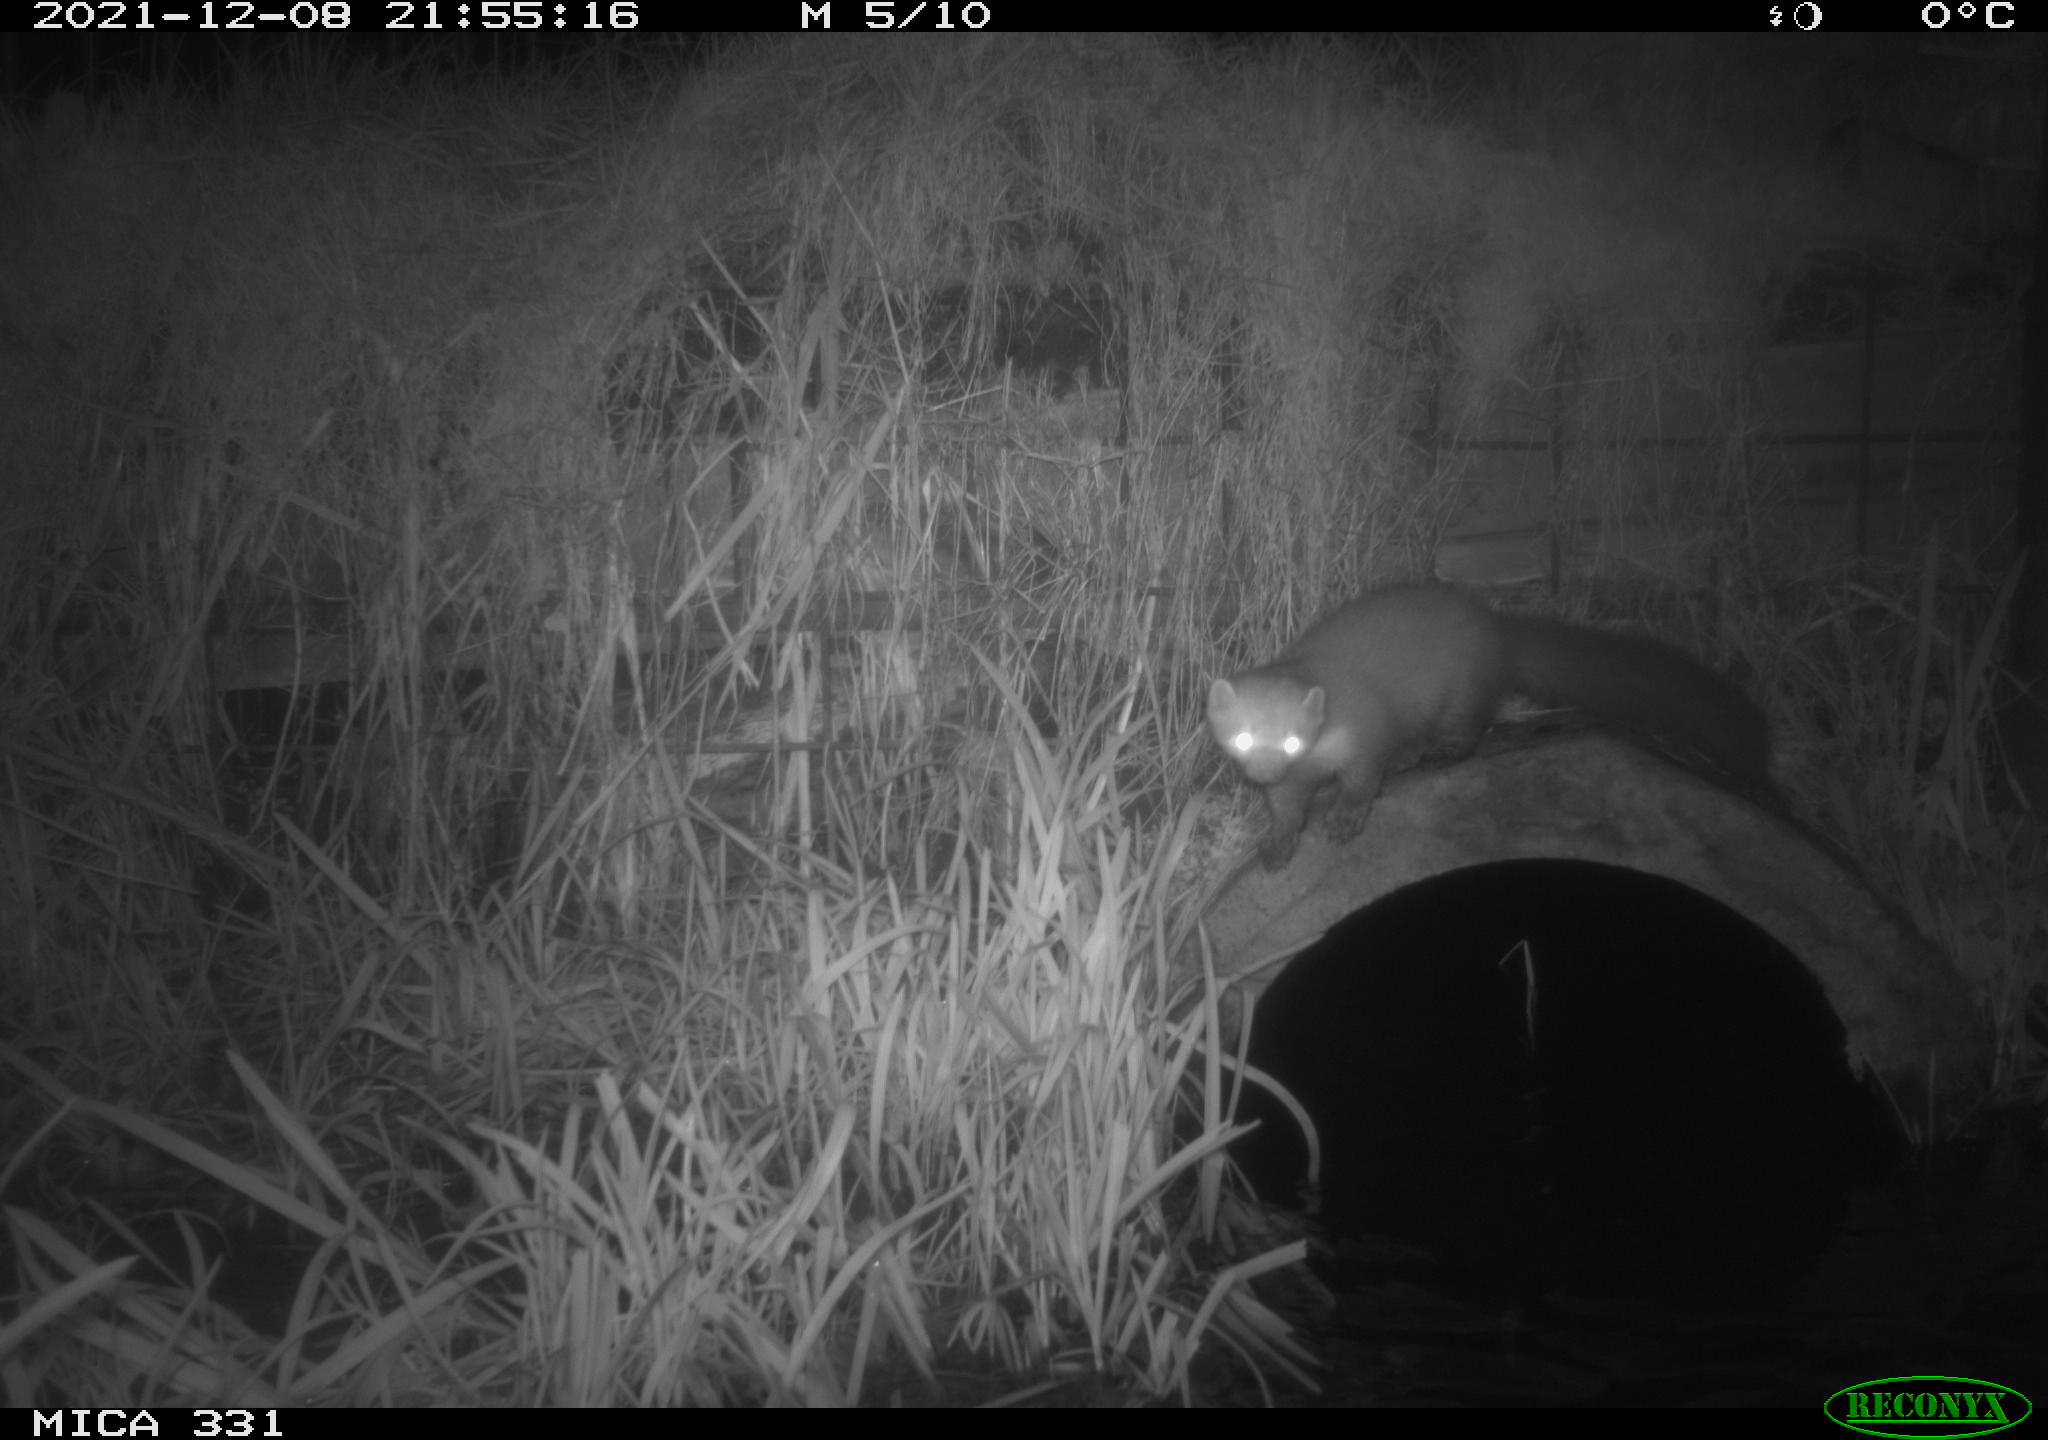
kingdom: Animalia
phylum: Chordata
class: Mammalia
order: Carnivora
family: Mustelidae
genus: Martes
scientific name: Martes foina
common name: Beech marten
